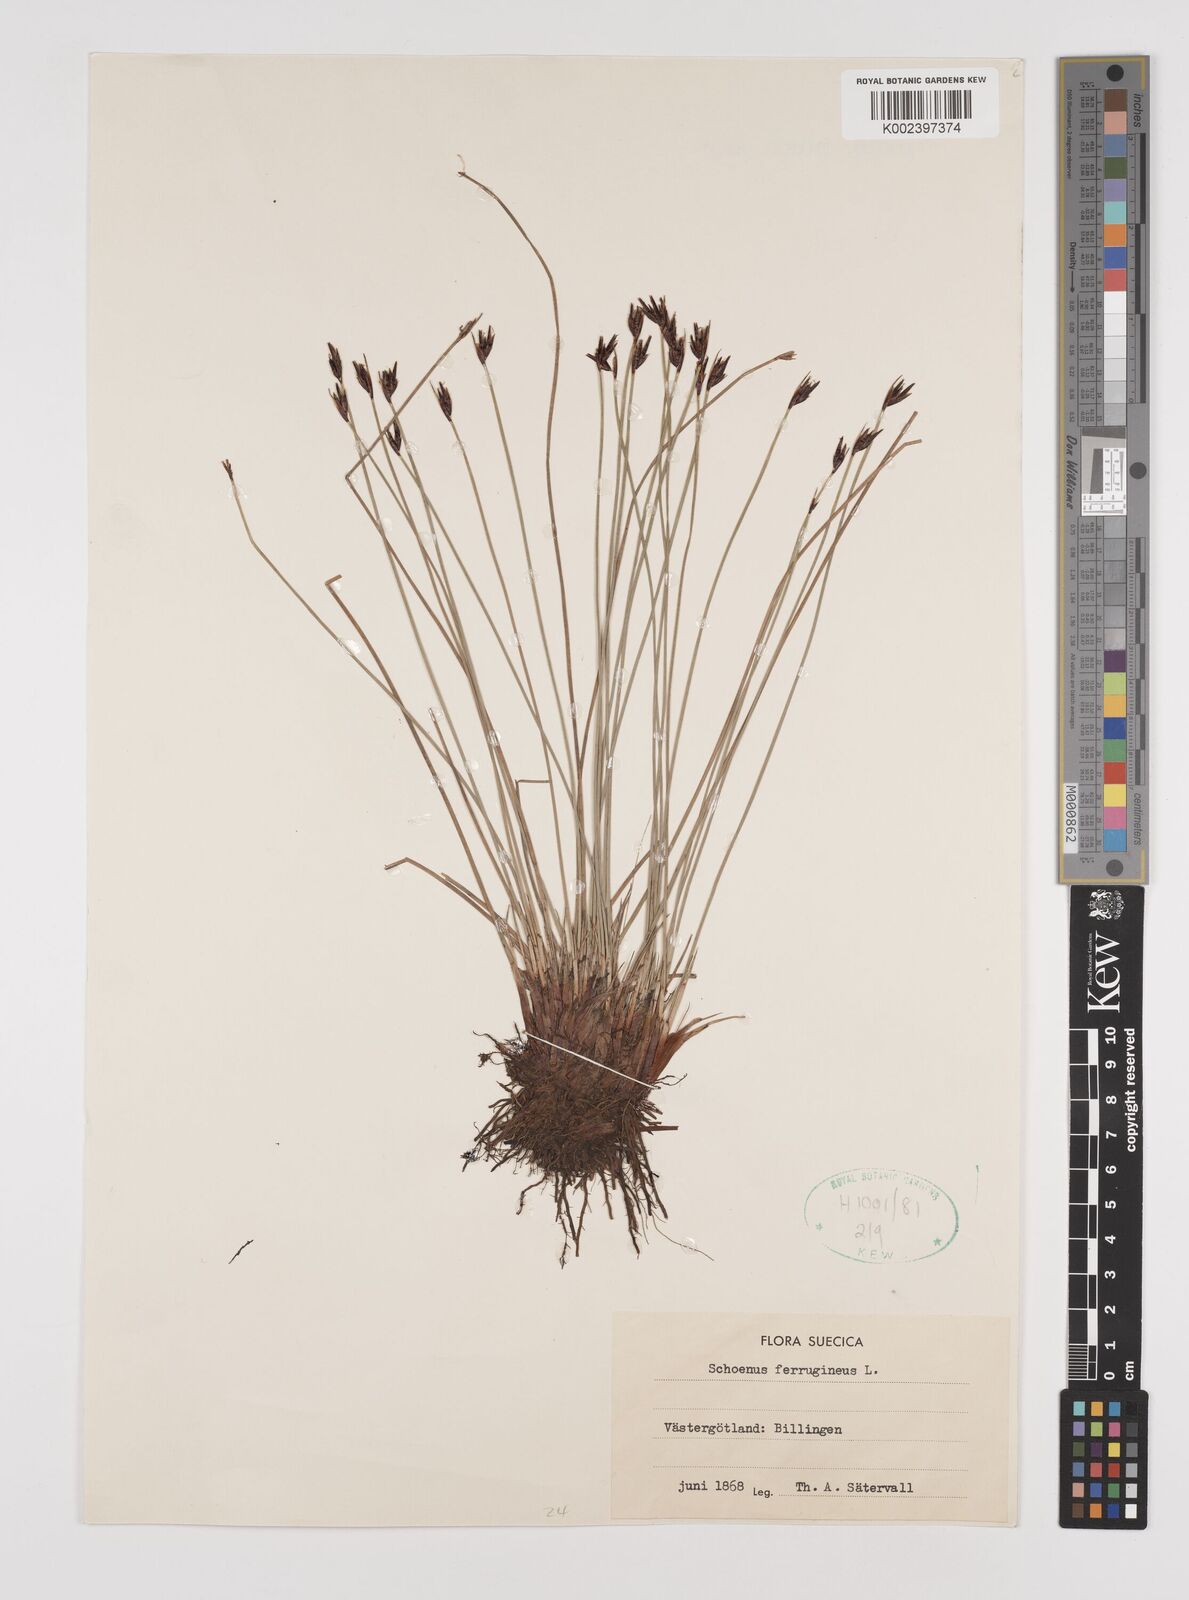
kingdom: Plantae
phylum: Tracheophyta
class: Liliopsida
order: Poales
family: Cyperaceae
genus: Schoenus
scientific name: Schoenus ferrugineus
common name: Brown bog-rush
